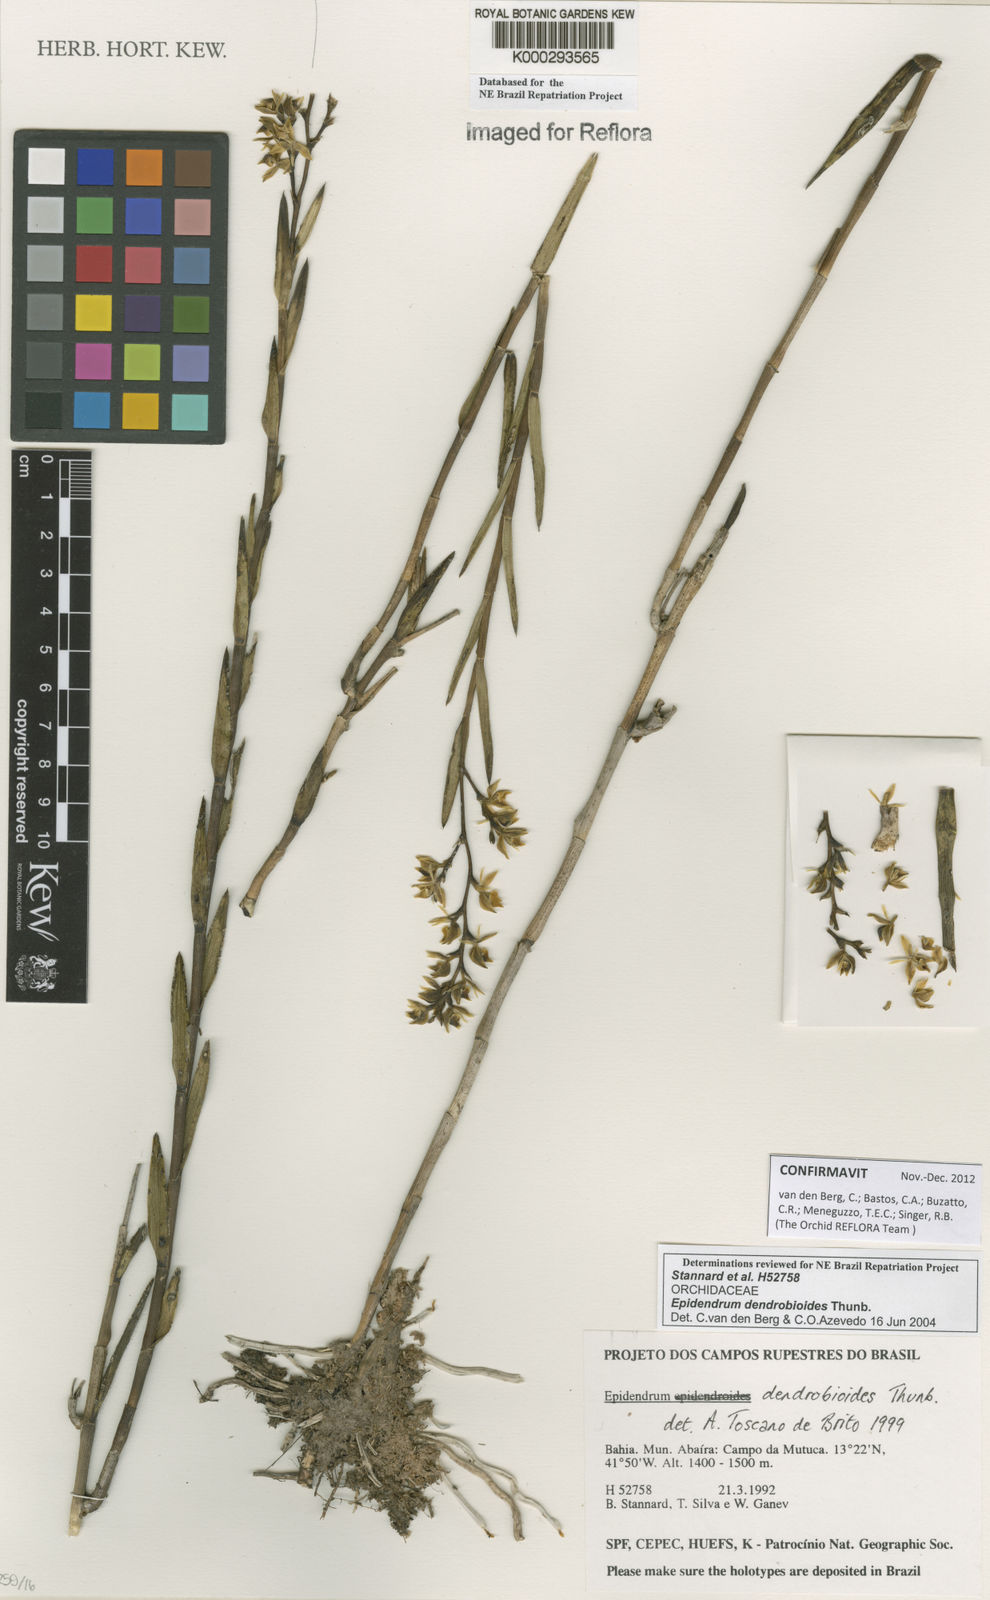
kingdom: Plantae
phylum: Tracheophyta
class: Liliopsida
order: Asparagales
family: Orchidaceae
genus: Epidendrum
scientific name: Epidendrum dendrobioides
